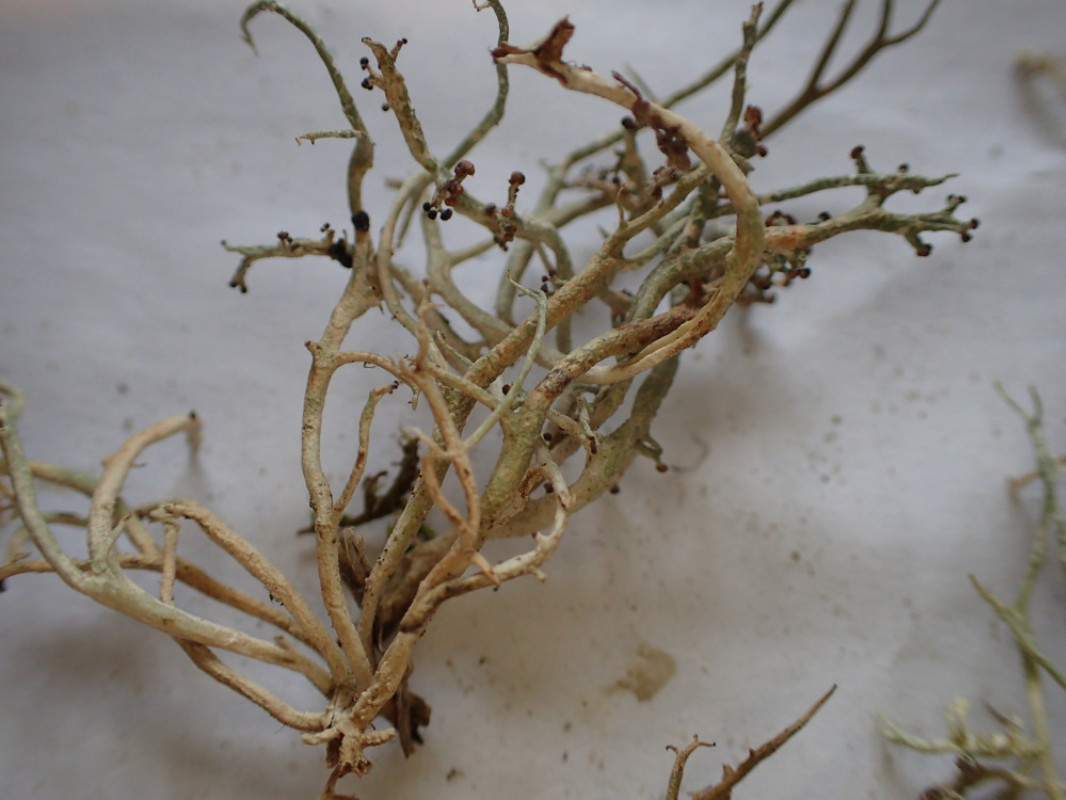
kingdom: Fungi
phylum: Ascomycota
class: Lecanoromycetes
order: Lecanorales
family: Cladoniaceae
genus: Cladonia
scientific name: Cladonia furcata
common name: kløftet bægerlav
